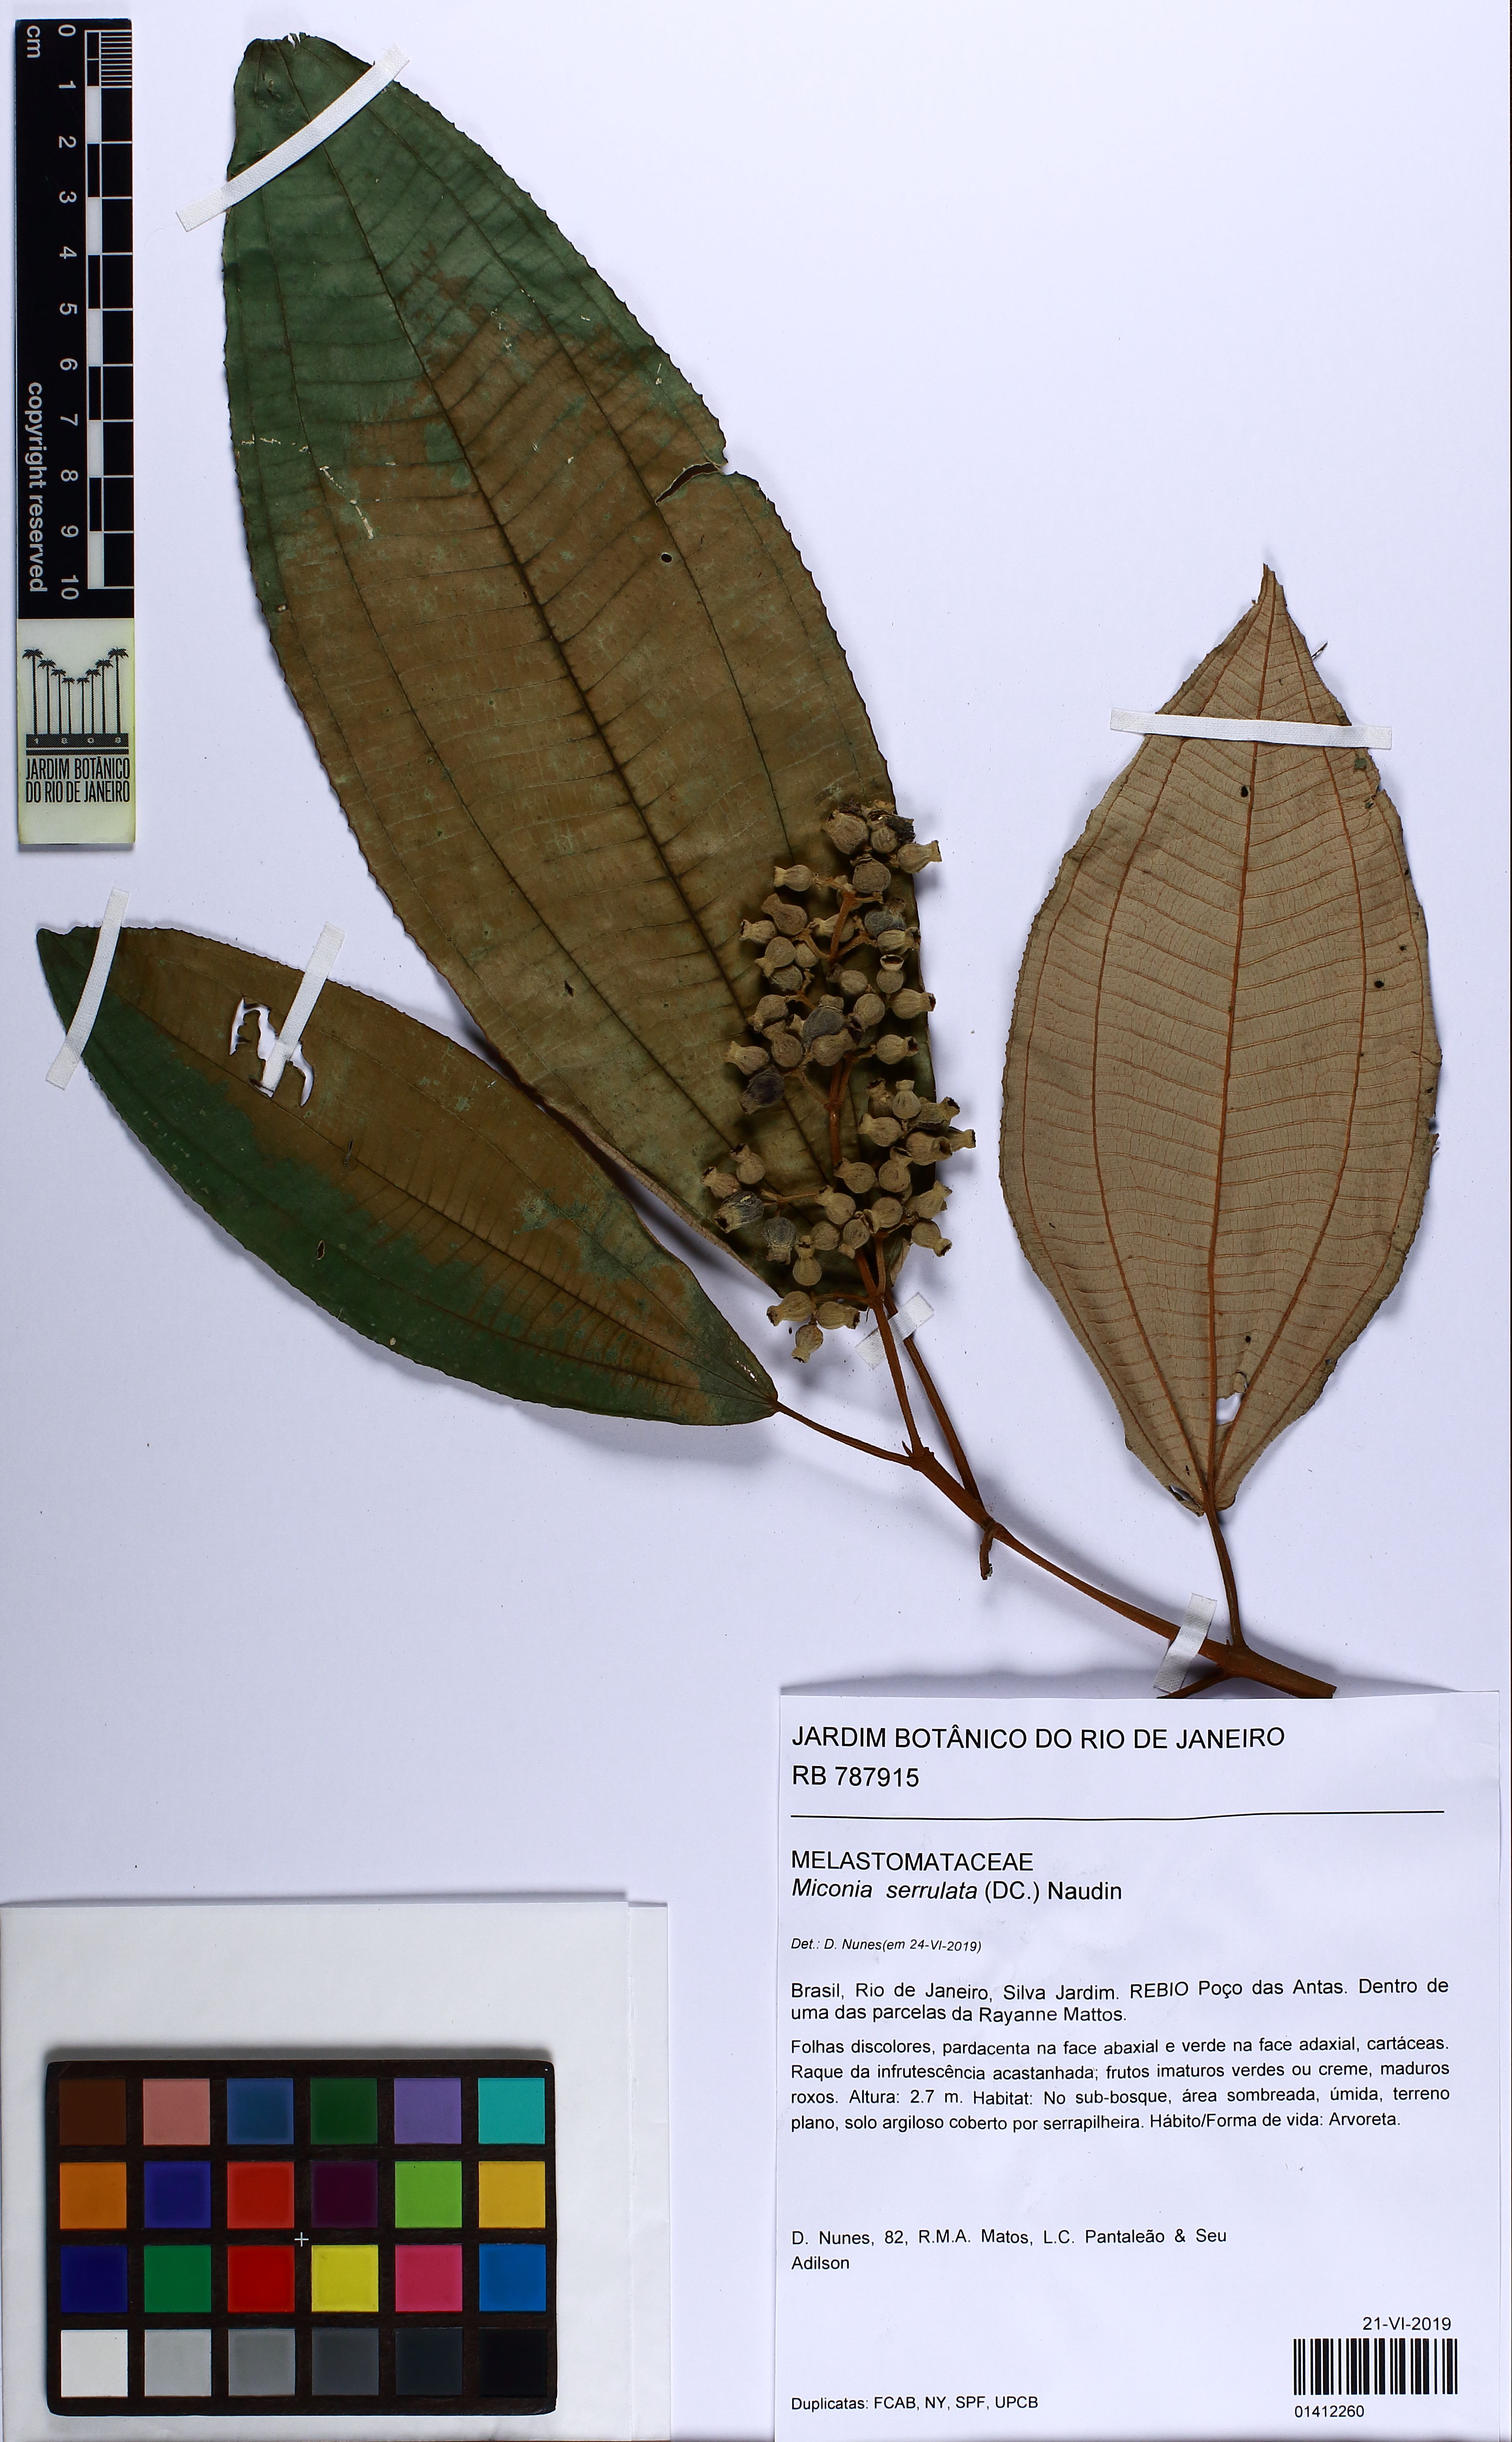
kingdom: Plantae
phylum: Tracheophyta
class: Magnoliopsida
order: Myrtales
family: Melastomataceae
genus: Miconia
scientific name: Miconia serrulata
